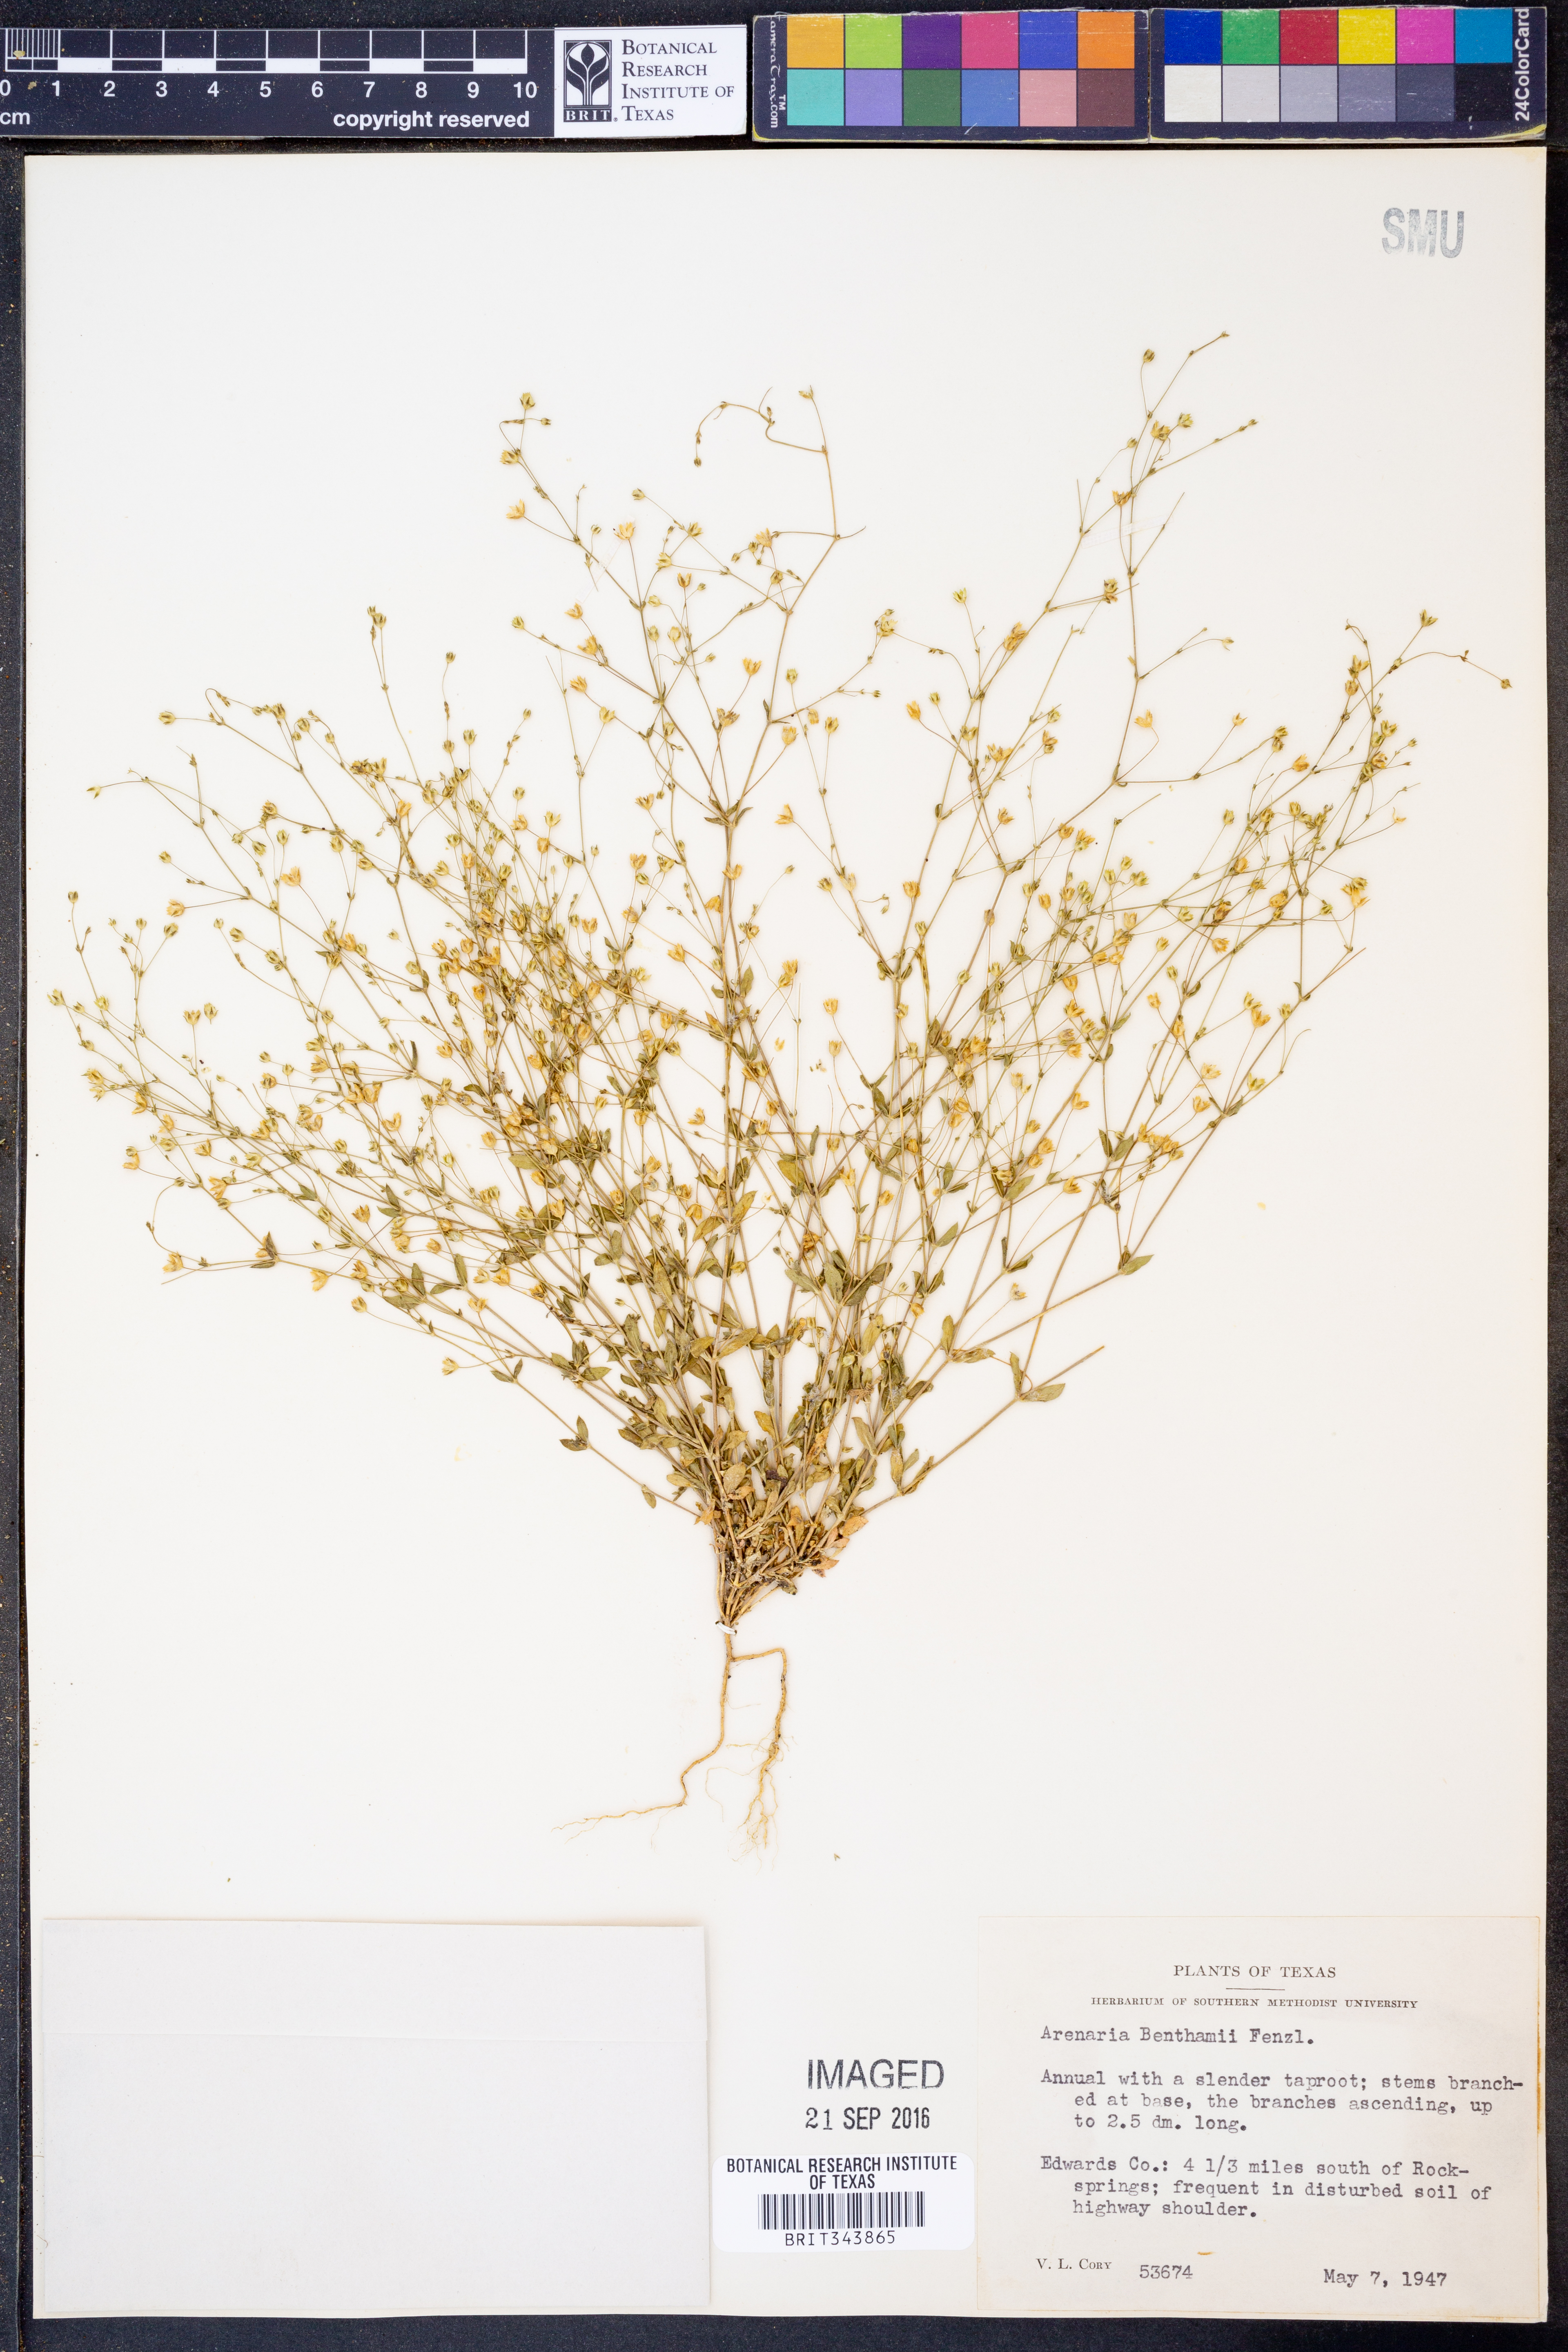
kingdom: Plantae
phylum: Tracheophyta
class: Magnoliopsida
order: Caryophyllales
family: Caryophyllaceae
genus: Arenaria
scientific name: Arenaria benthamii
